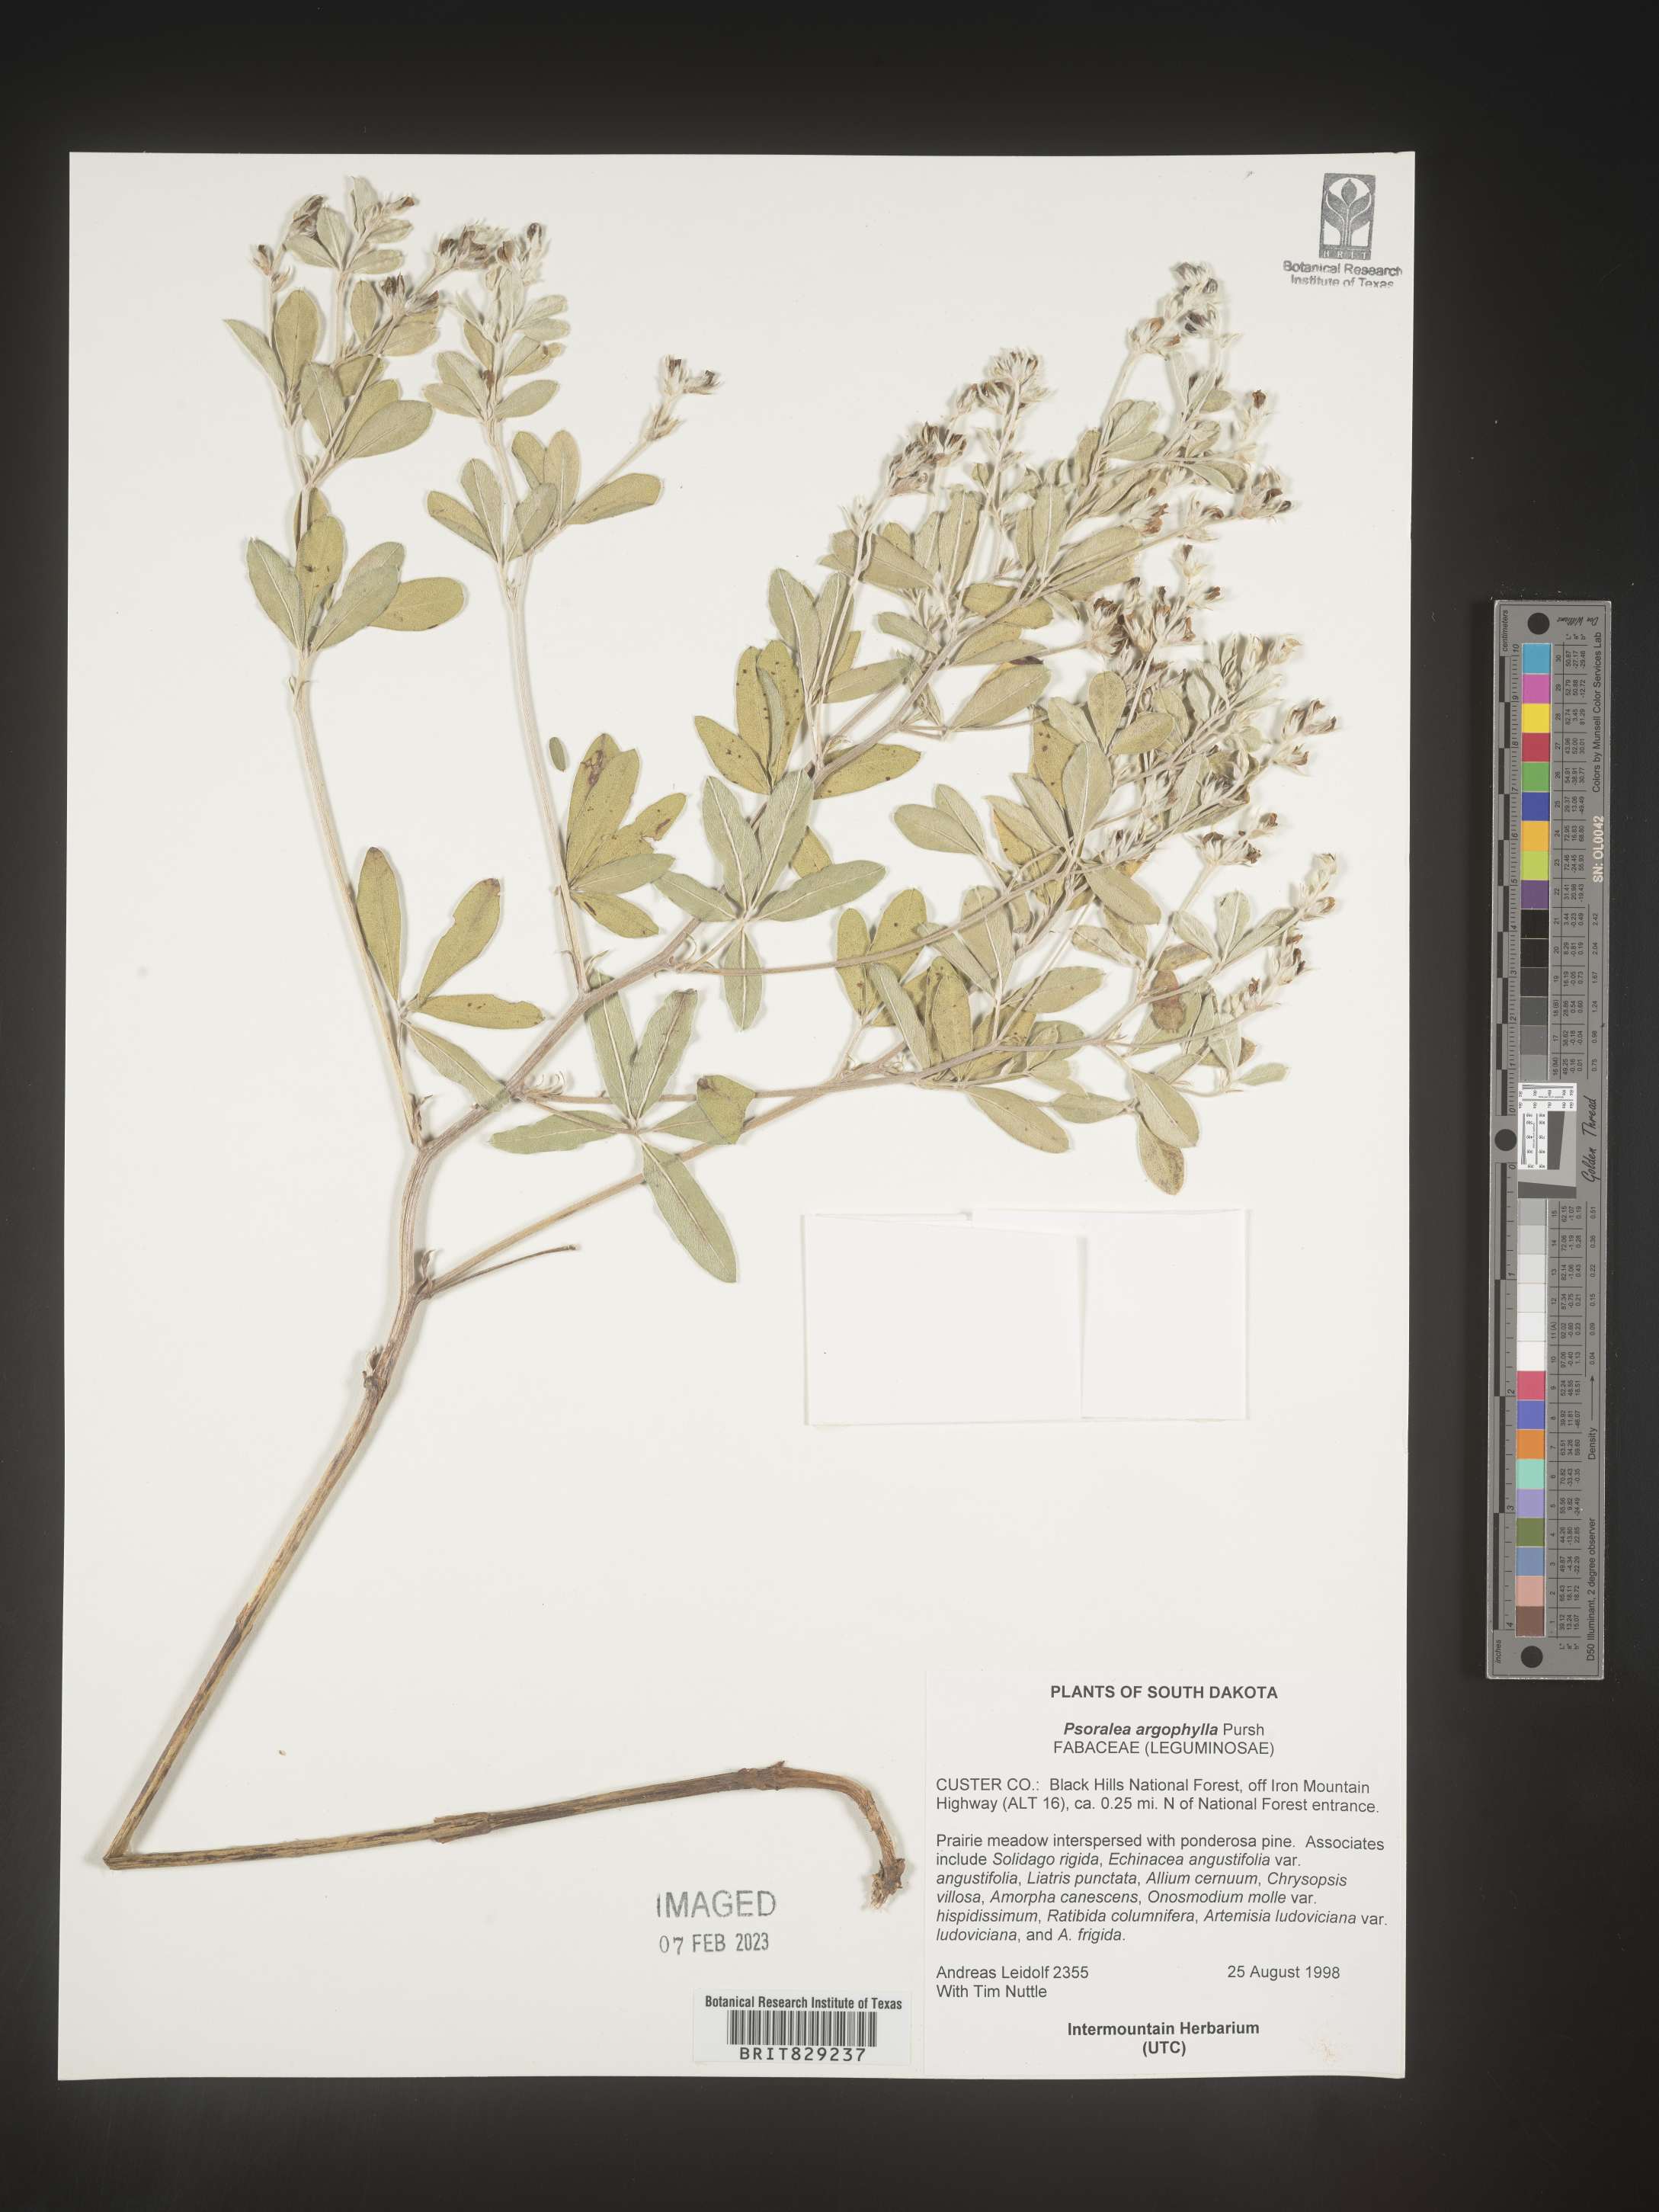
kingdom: Plantae
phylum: Tracheophyta
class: Magnoliopsida
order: Fabales
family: Fabaceae
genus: Pediomelum
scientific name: Pediomelum argophyllum
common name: Silver-leaved indian breadroot
